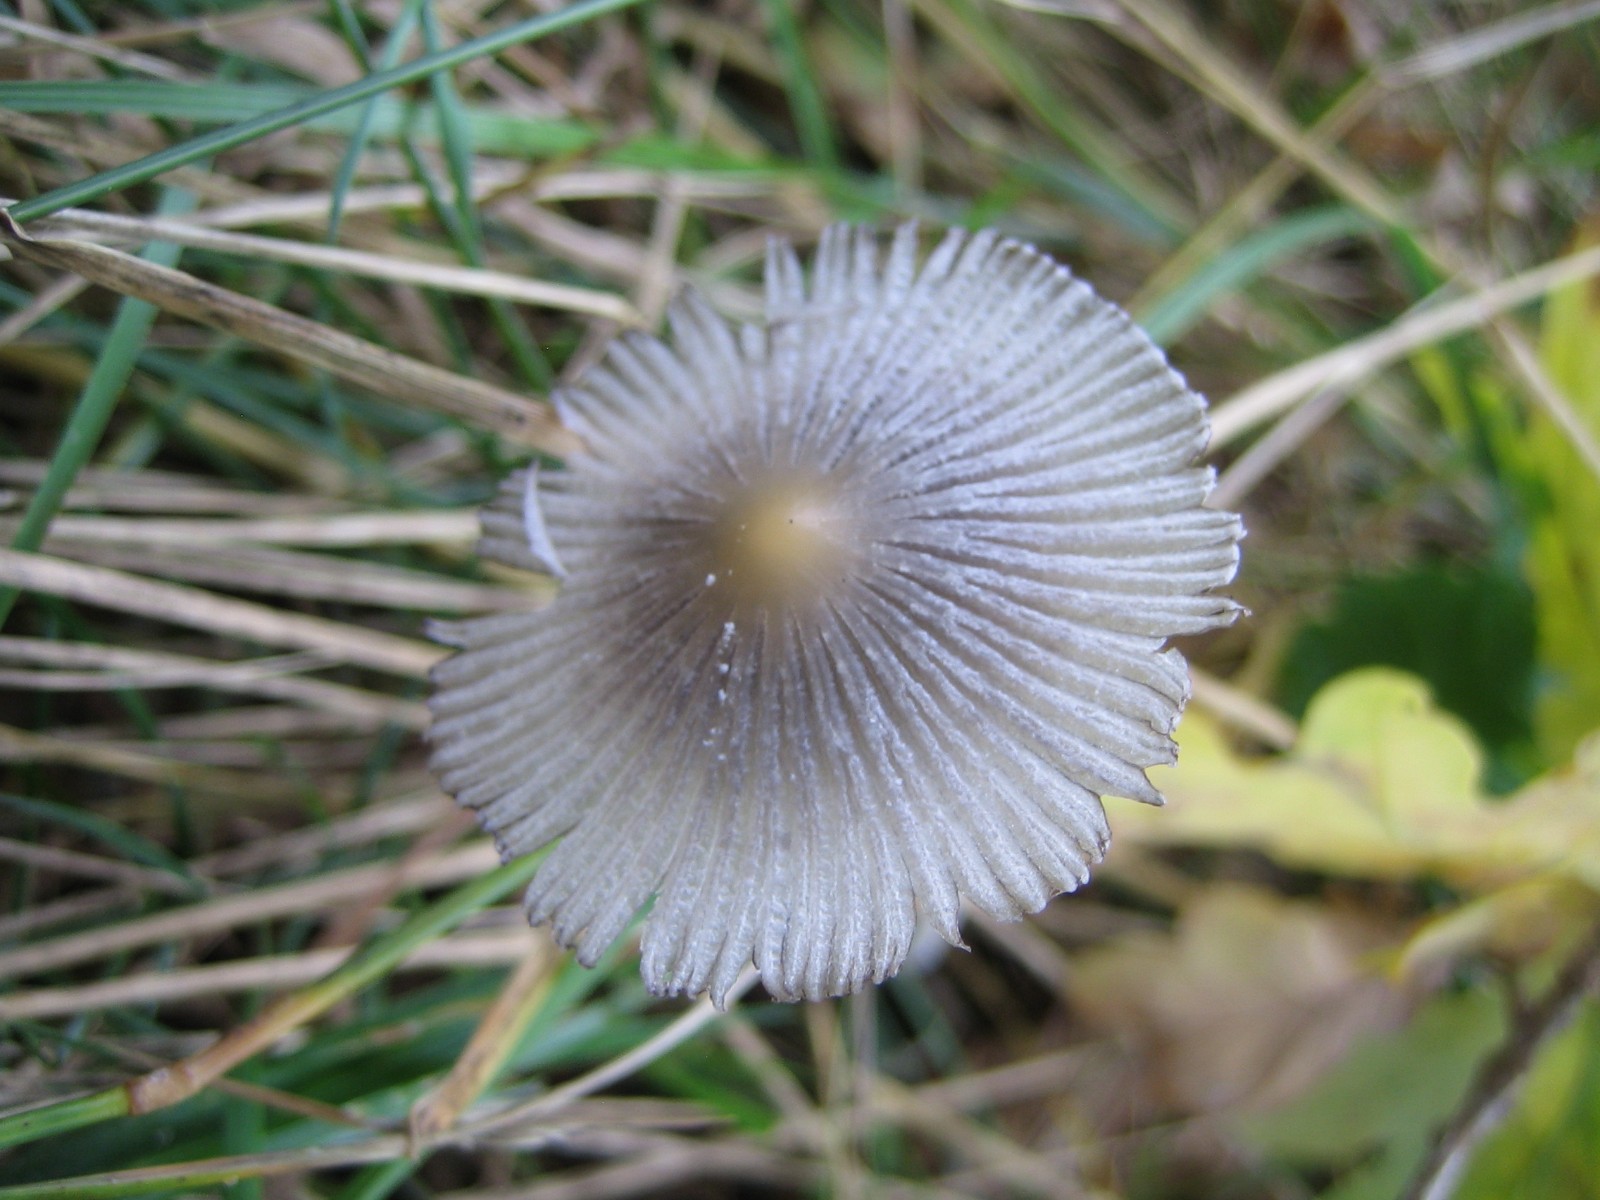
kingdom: Fungi
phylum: Basidiomycota
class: Agaricomycetes
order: Agaricales
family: Psathyrellaceae
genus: Coprinopsis
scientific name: Coprinopsis
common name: blækhat
